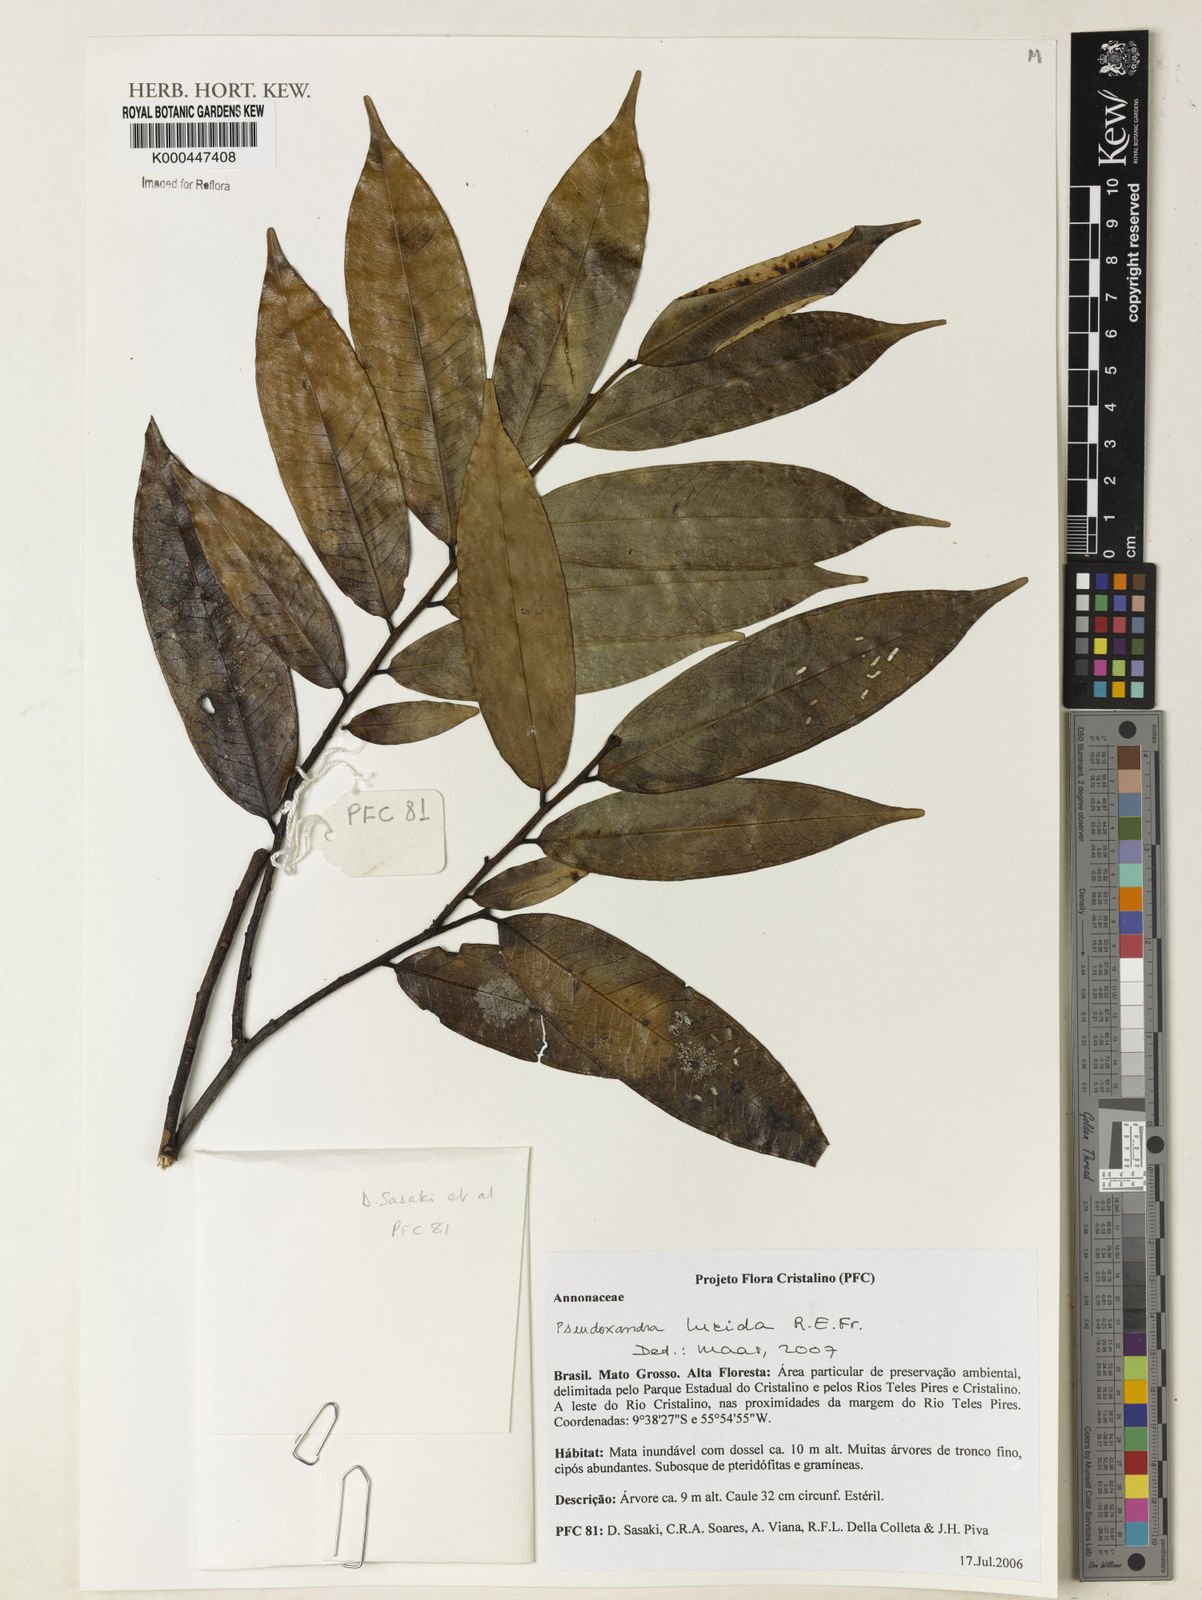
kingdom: Plantae
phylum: Tracheophyta
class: Magnoliopsida
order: Magnoliales
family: Annonaceae
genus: Pseudoxandra
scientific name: Pseudoxandra lucida
